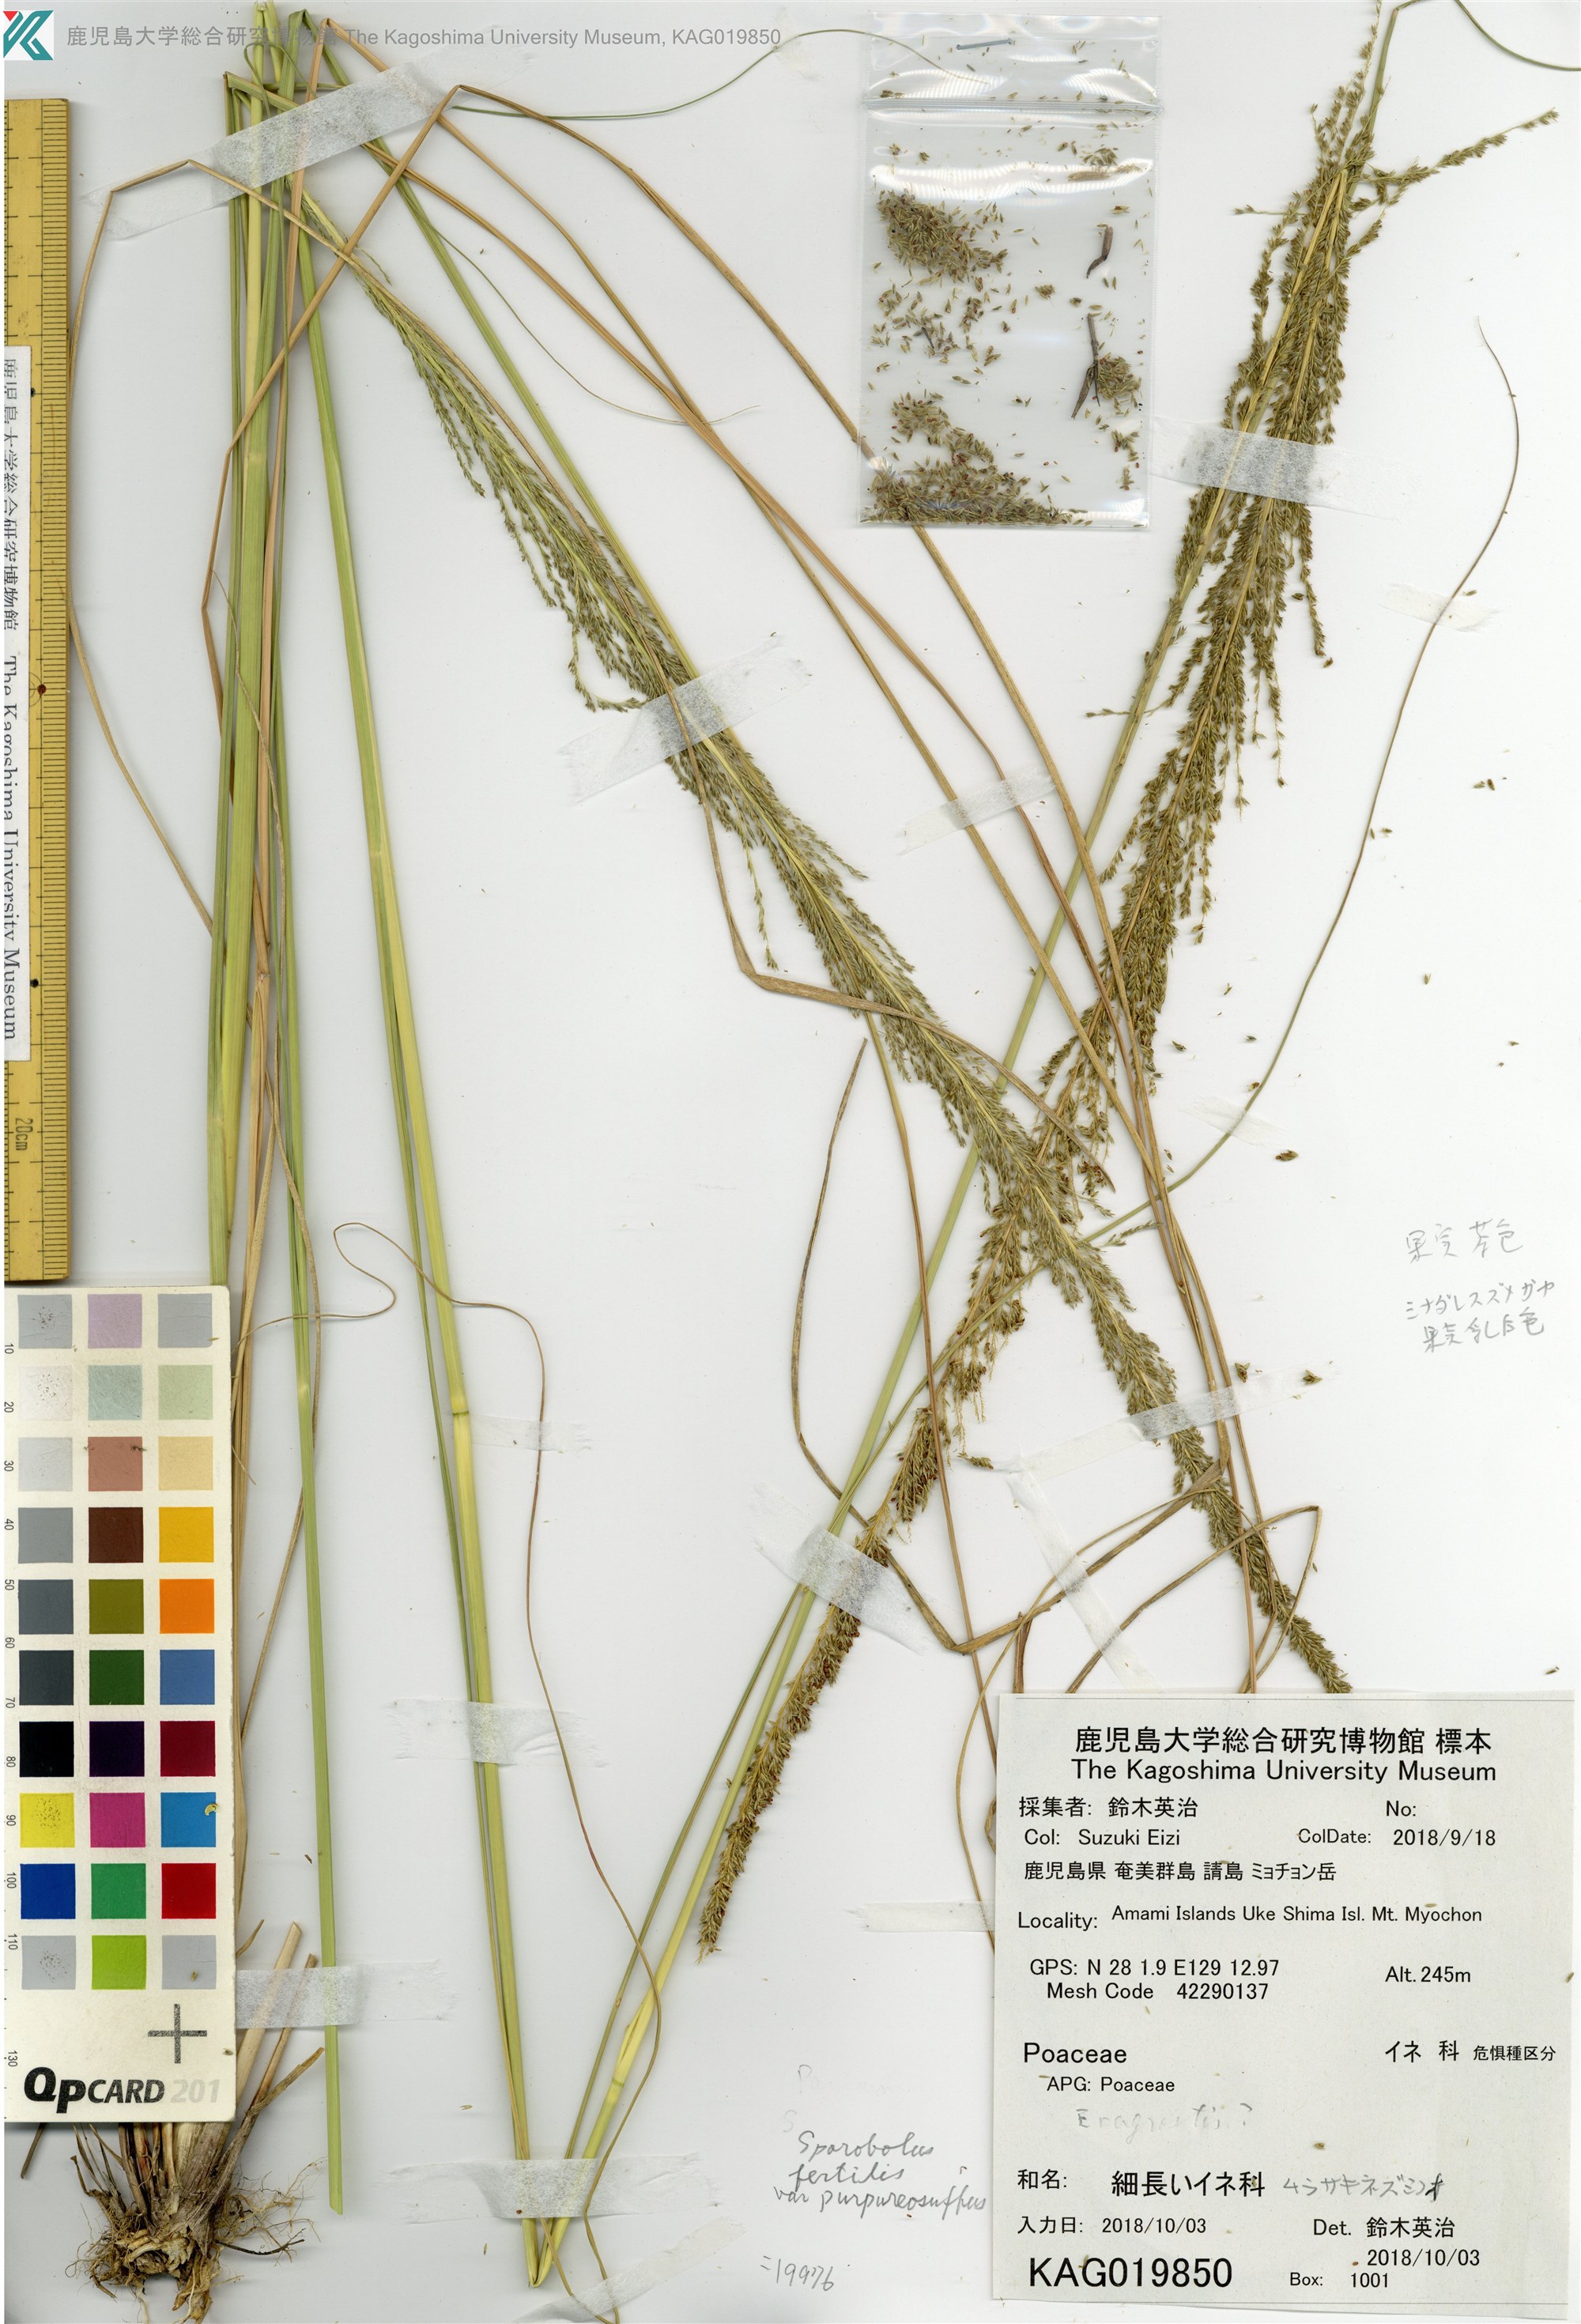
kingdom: Plantae
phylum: Tracheophyta
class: Liliopsida
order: Poales
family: Poaceae
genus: Sporobolus
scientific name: Sporobolus fertilis
